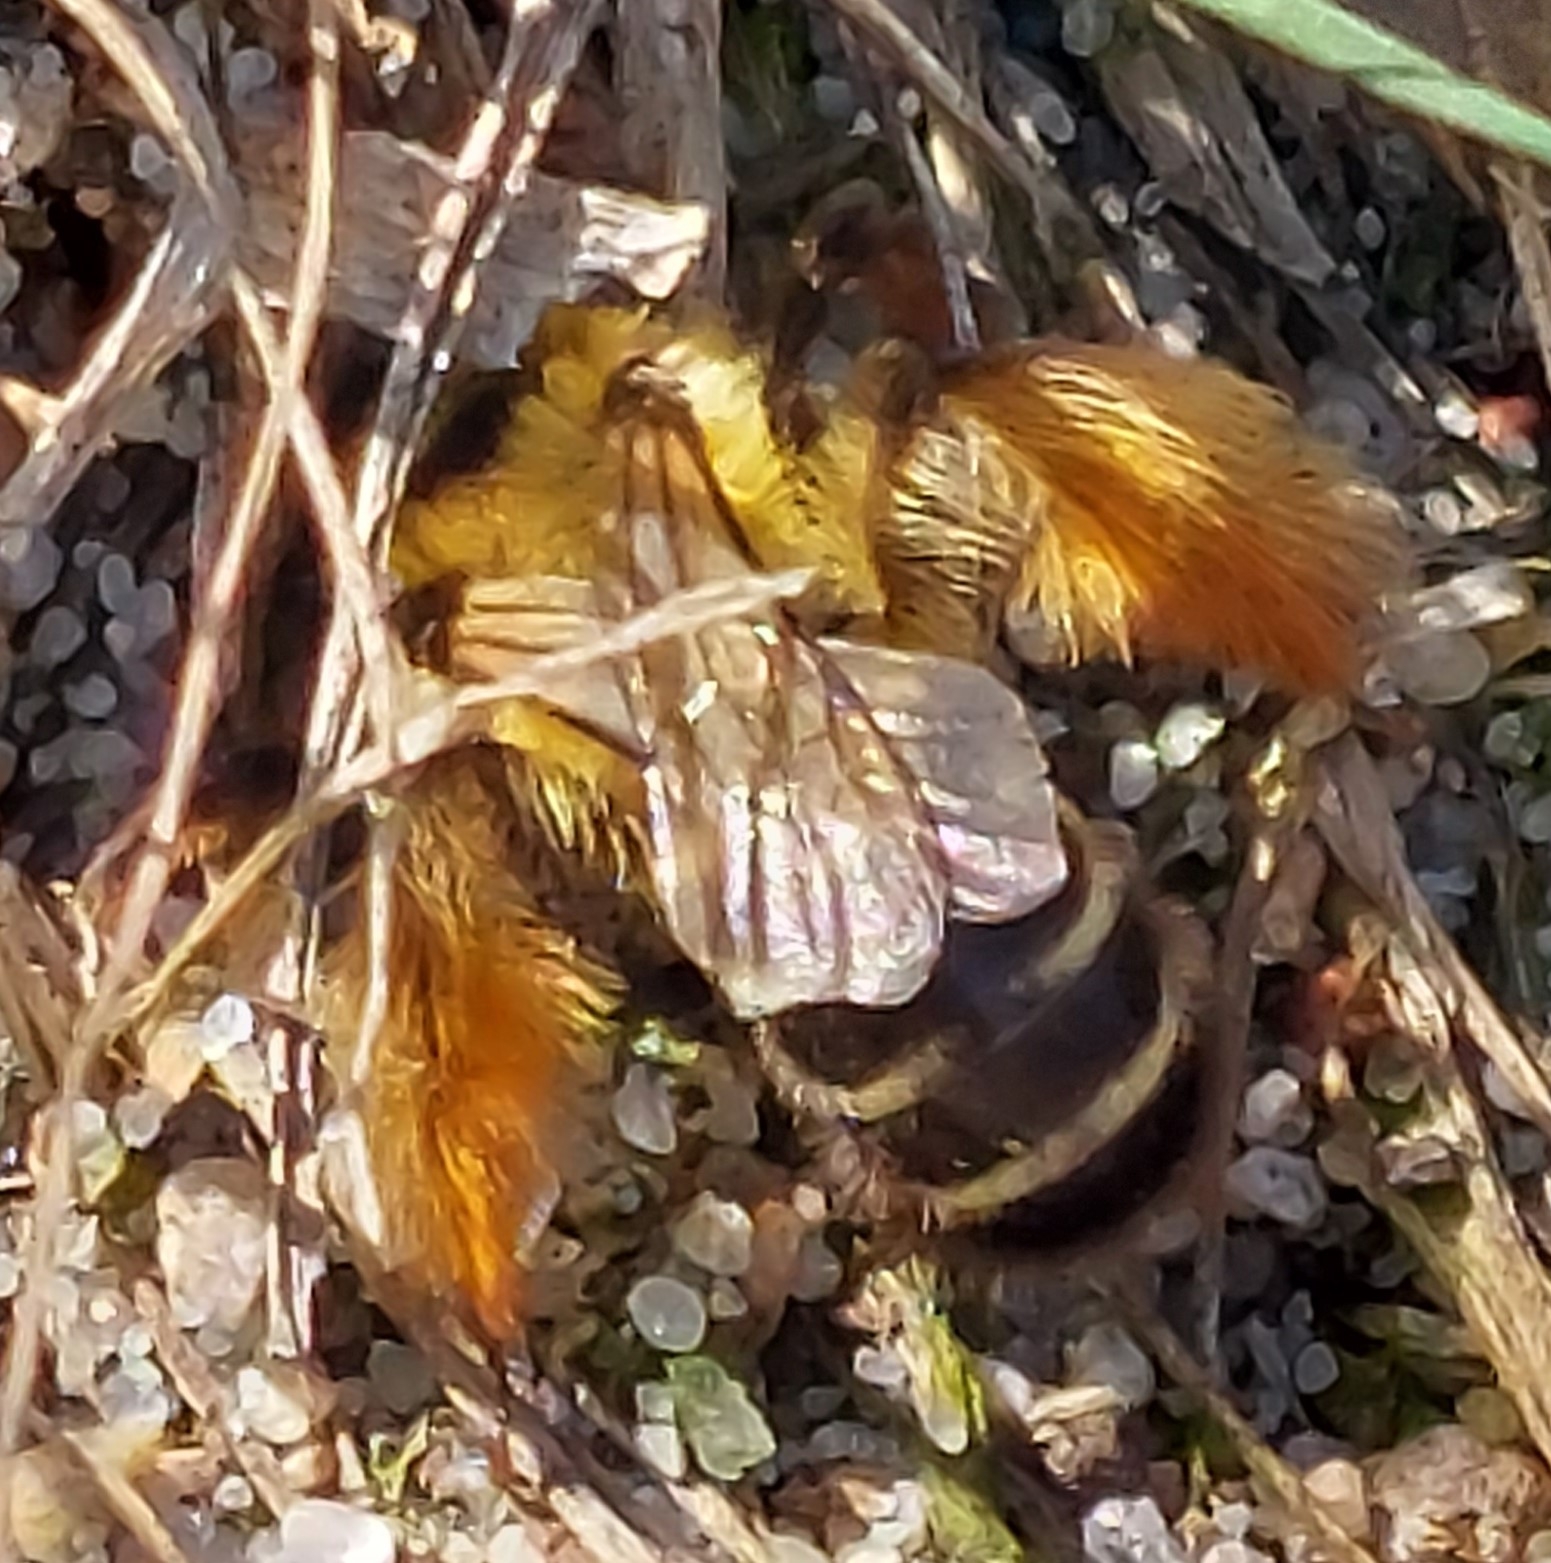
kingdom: Animalia
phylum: Arthropoda
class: Insecta
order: Hymenoptera
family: Melittidae
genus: Dasypoda
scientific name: Dasypoda hirtipes
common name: Pragtbuksebi
